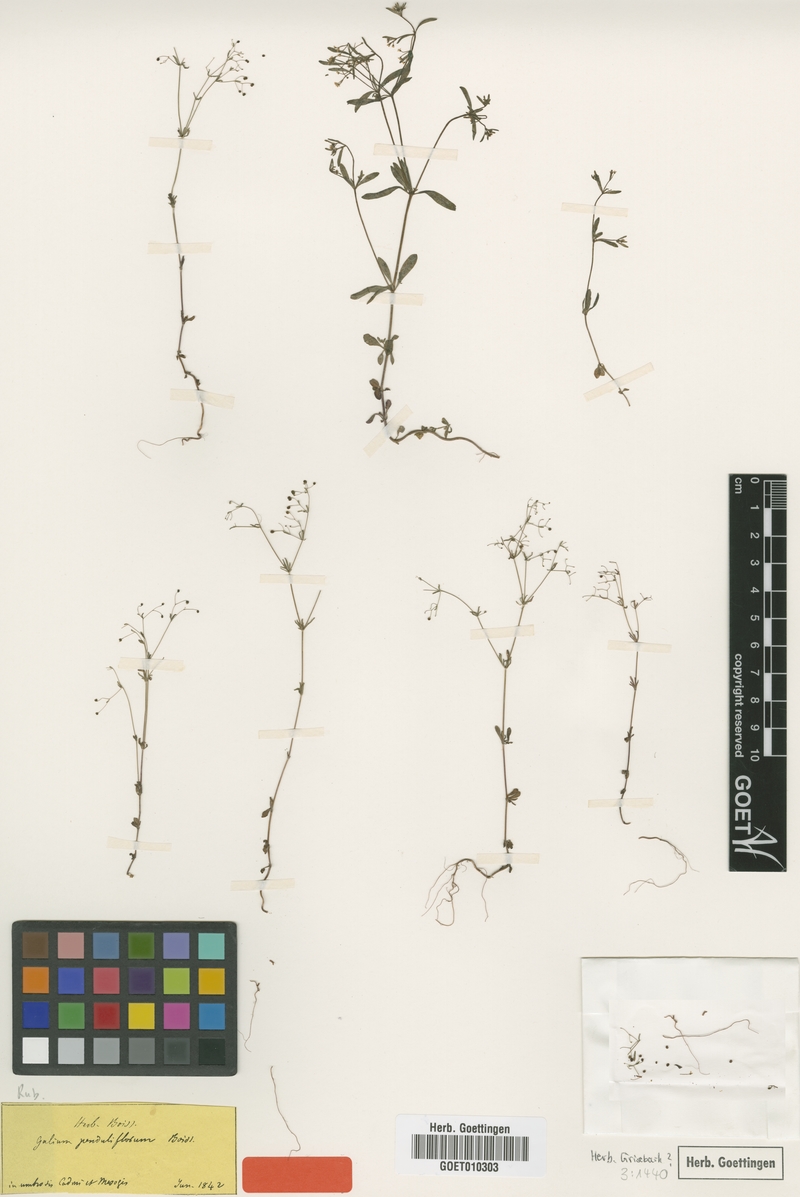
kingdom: Plantae
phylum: Tracheophyta
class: Magnoliopsida
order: Gentianales
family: Rubiaceae
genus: Galium
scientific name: Galium penduliflorum
